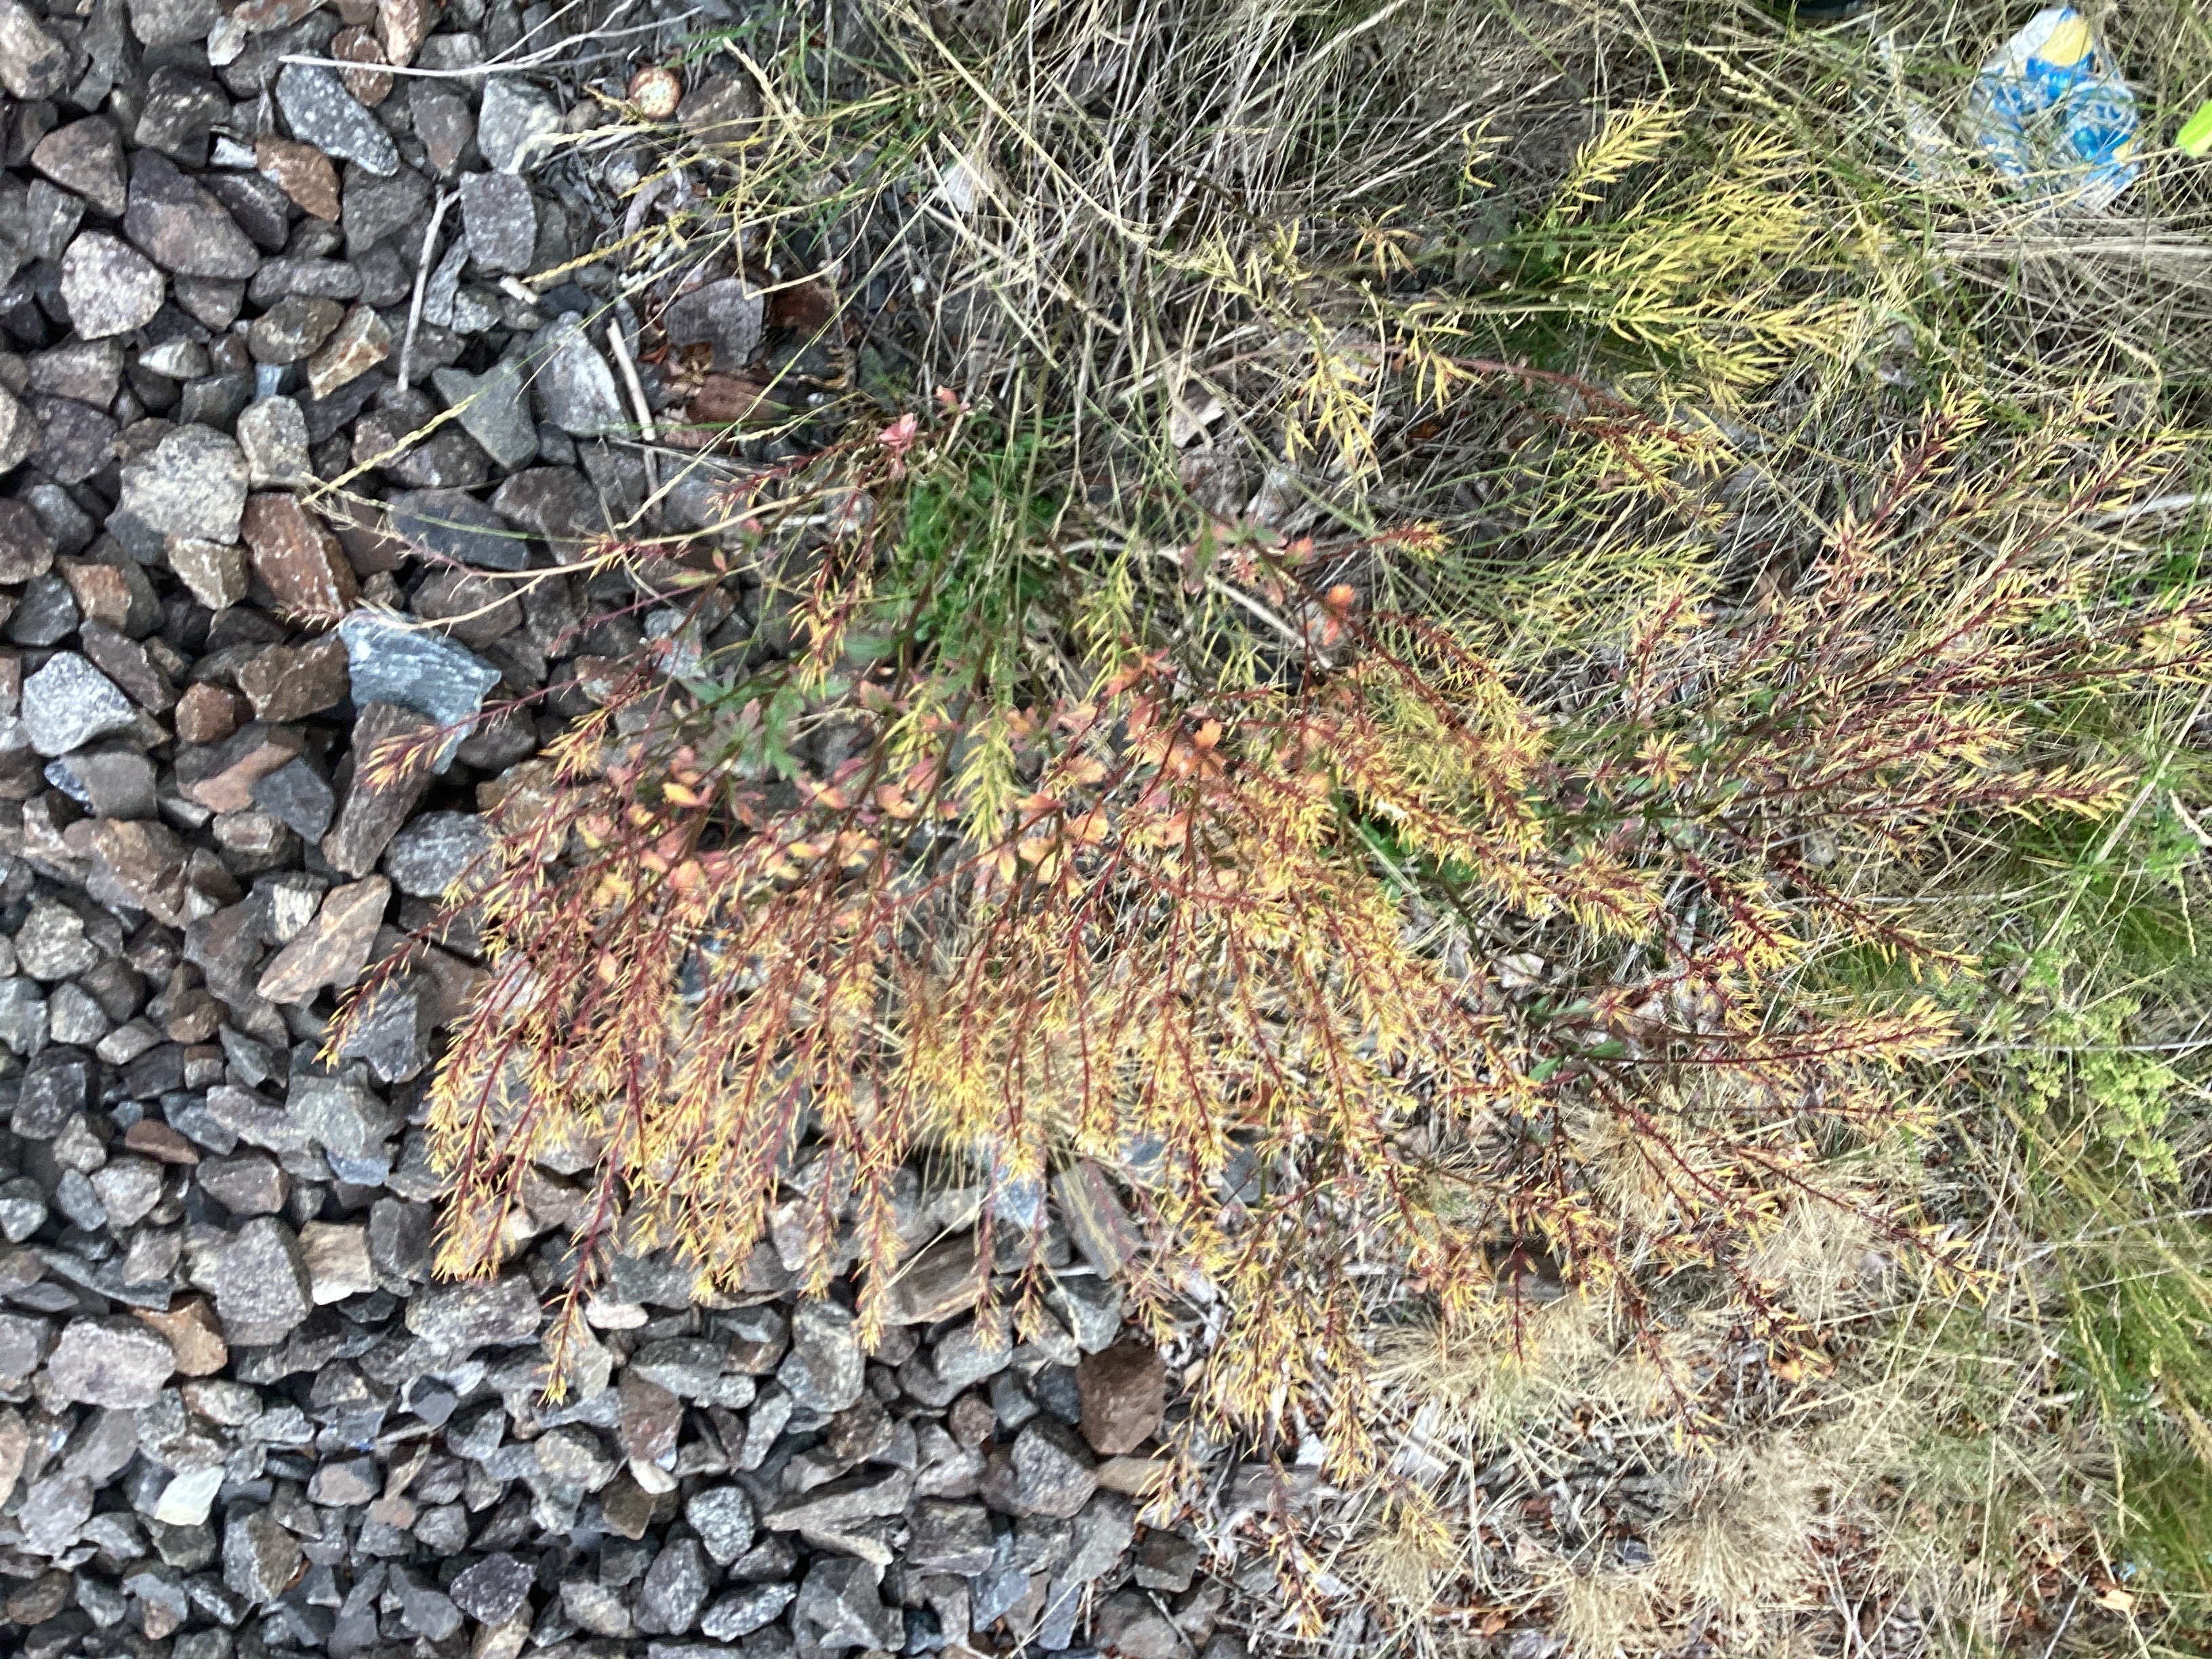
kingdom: Plantae
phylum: Tracheophyta
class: Magnoliopsida
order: Brassicales
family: Brassicaceae
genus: Barbarea
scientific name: Barbarea vulgaris
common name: vinterkarse
